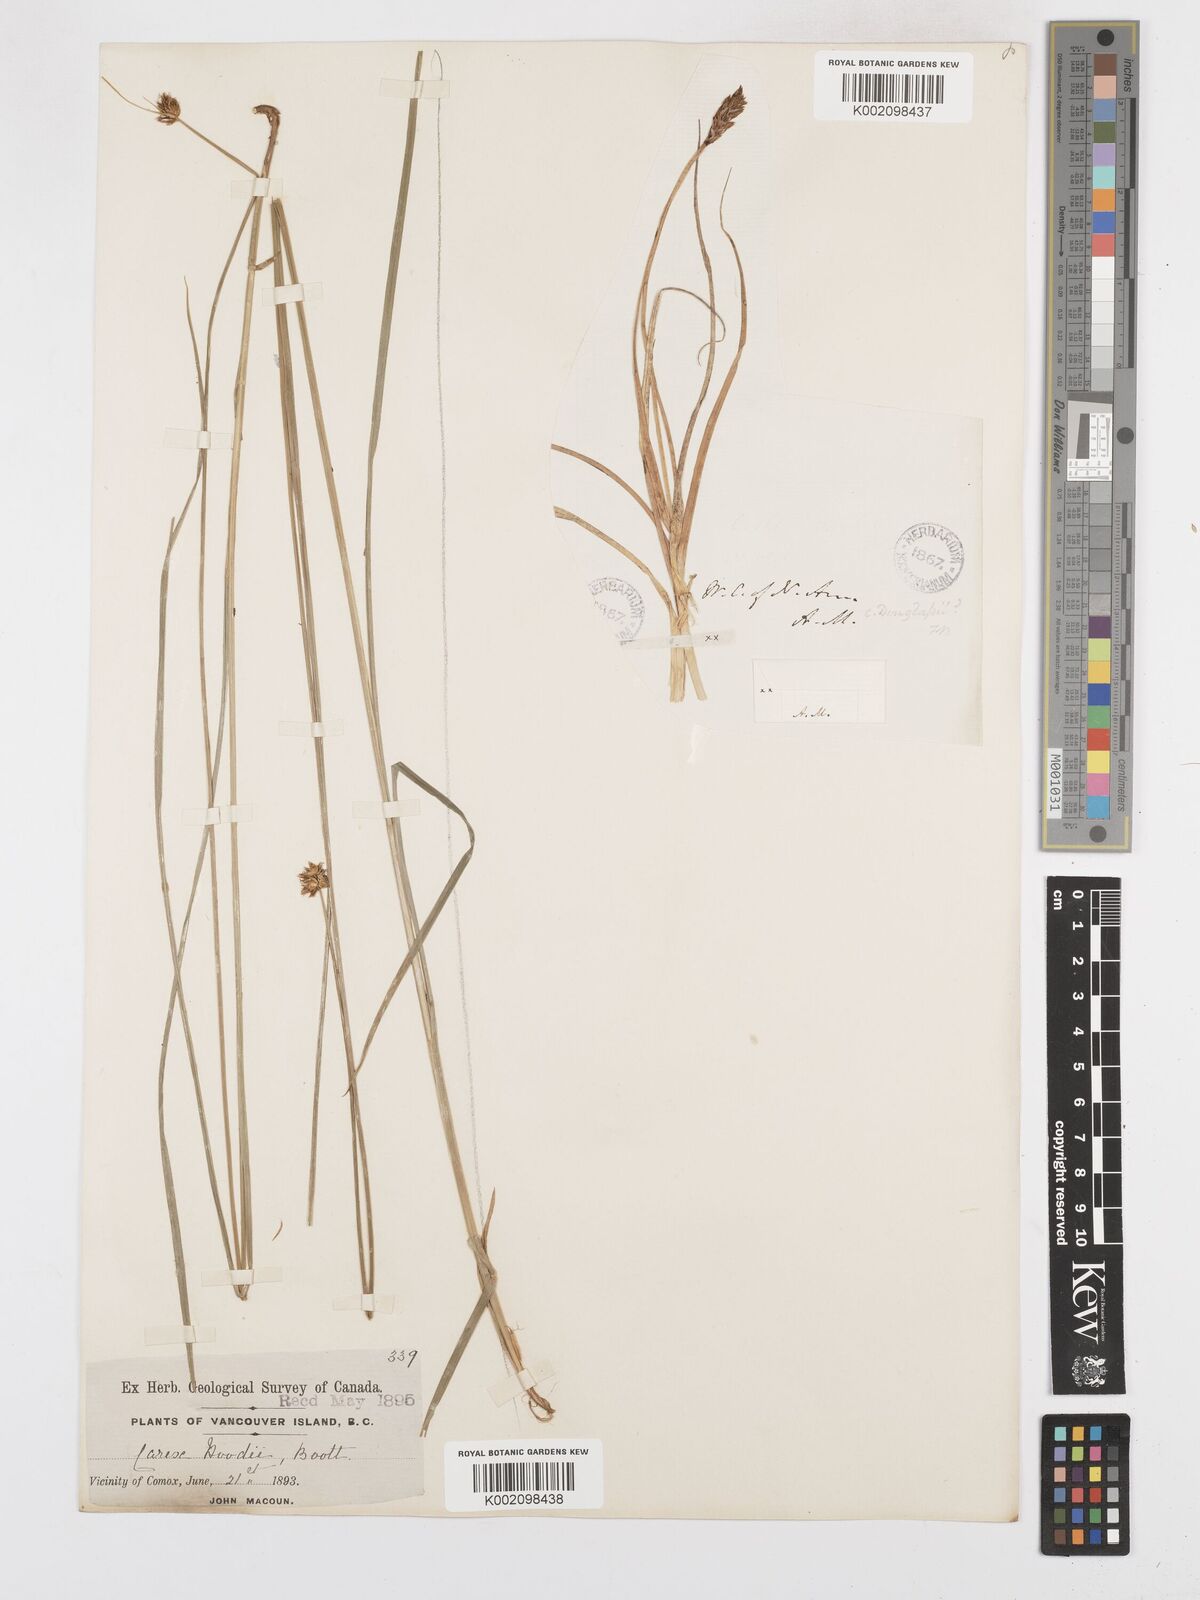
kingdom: Plantae
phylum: Tracheophyta
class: Liliopsida
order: Poales
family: Cyperaceae
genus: Carex
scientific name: Carex hoodii
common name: Hood's sedge
